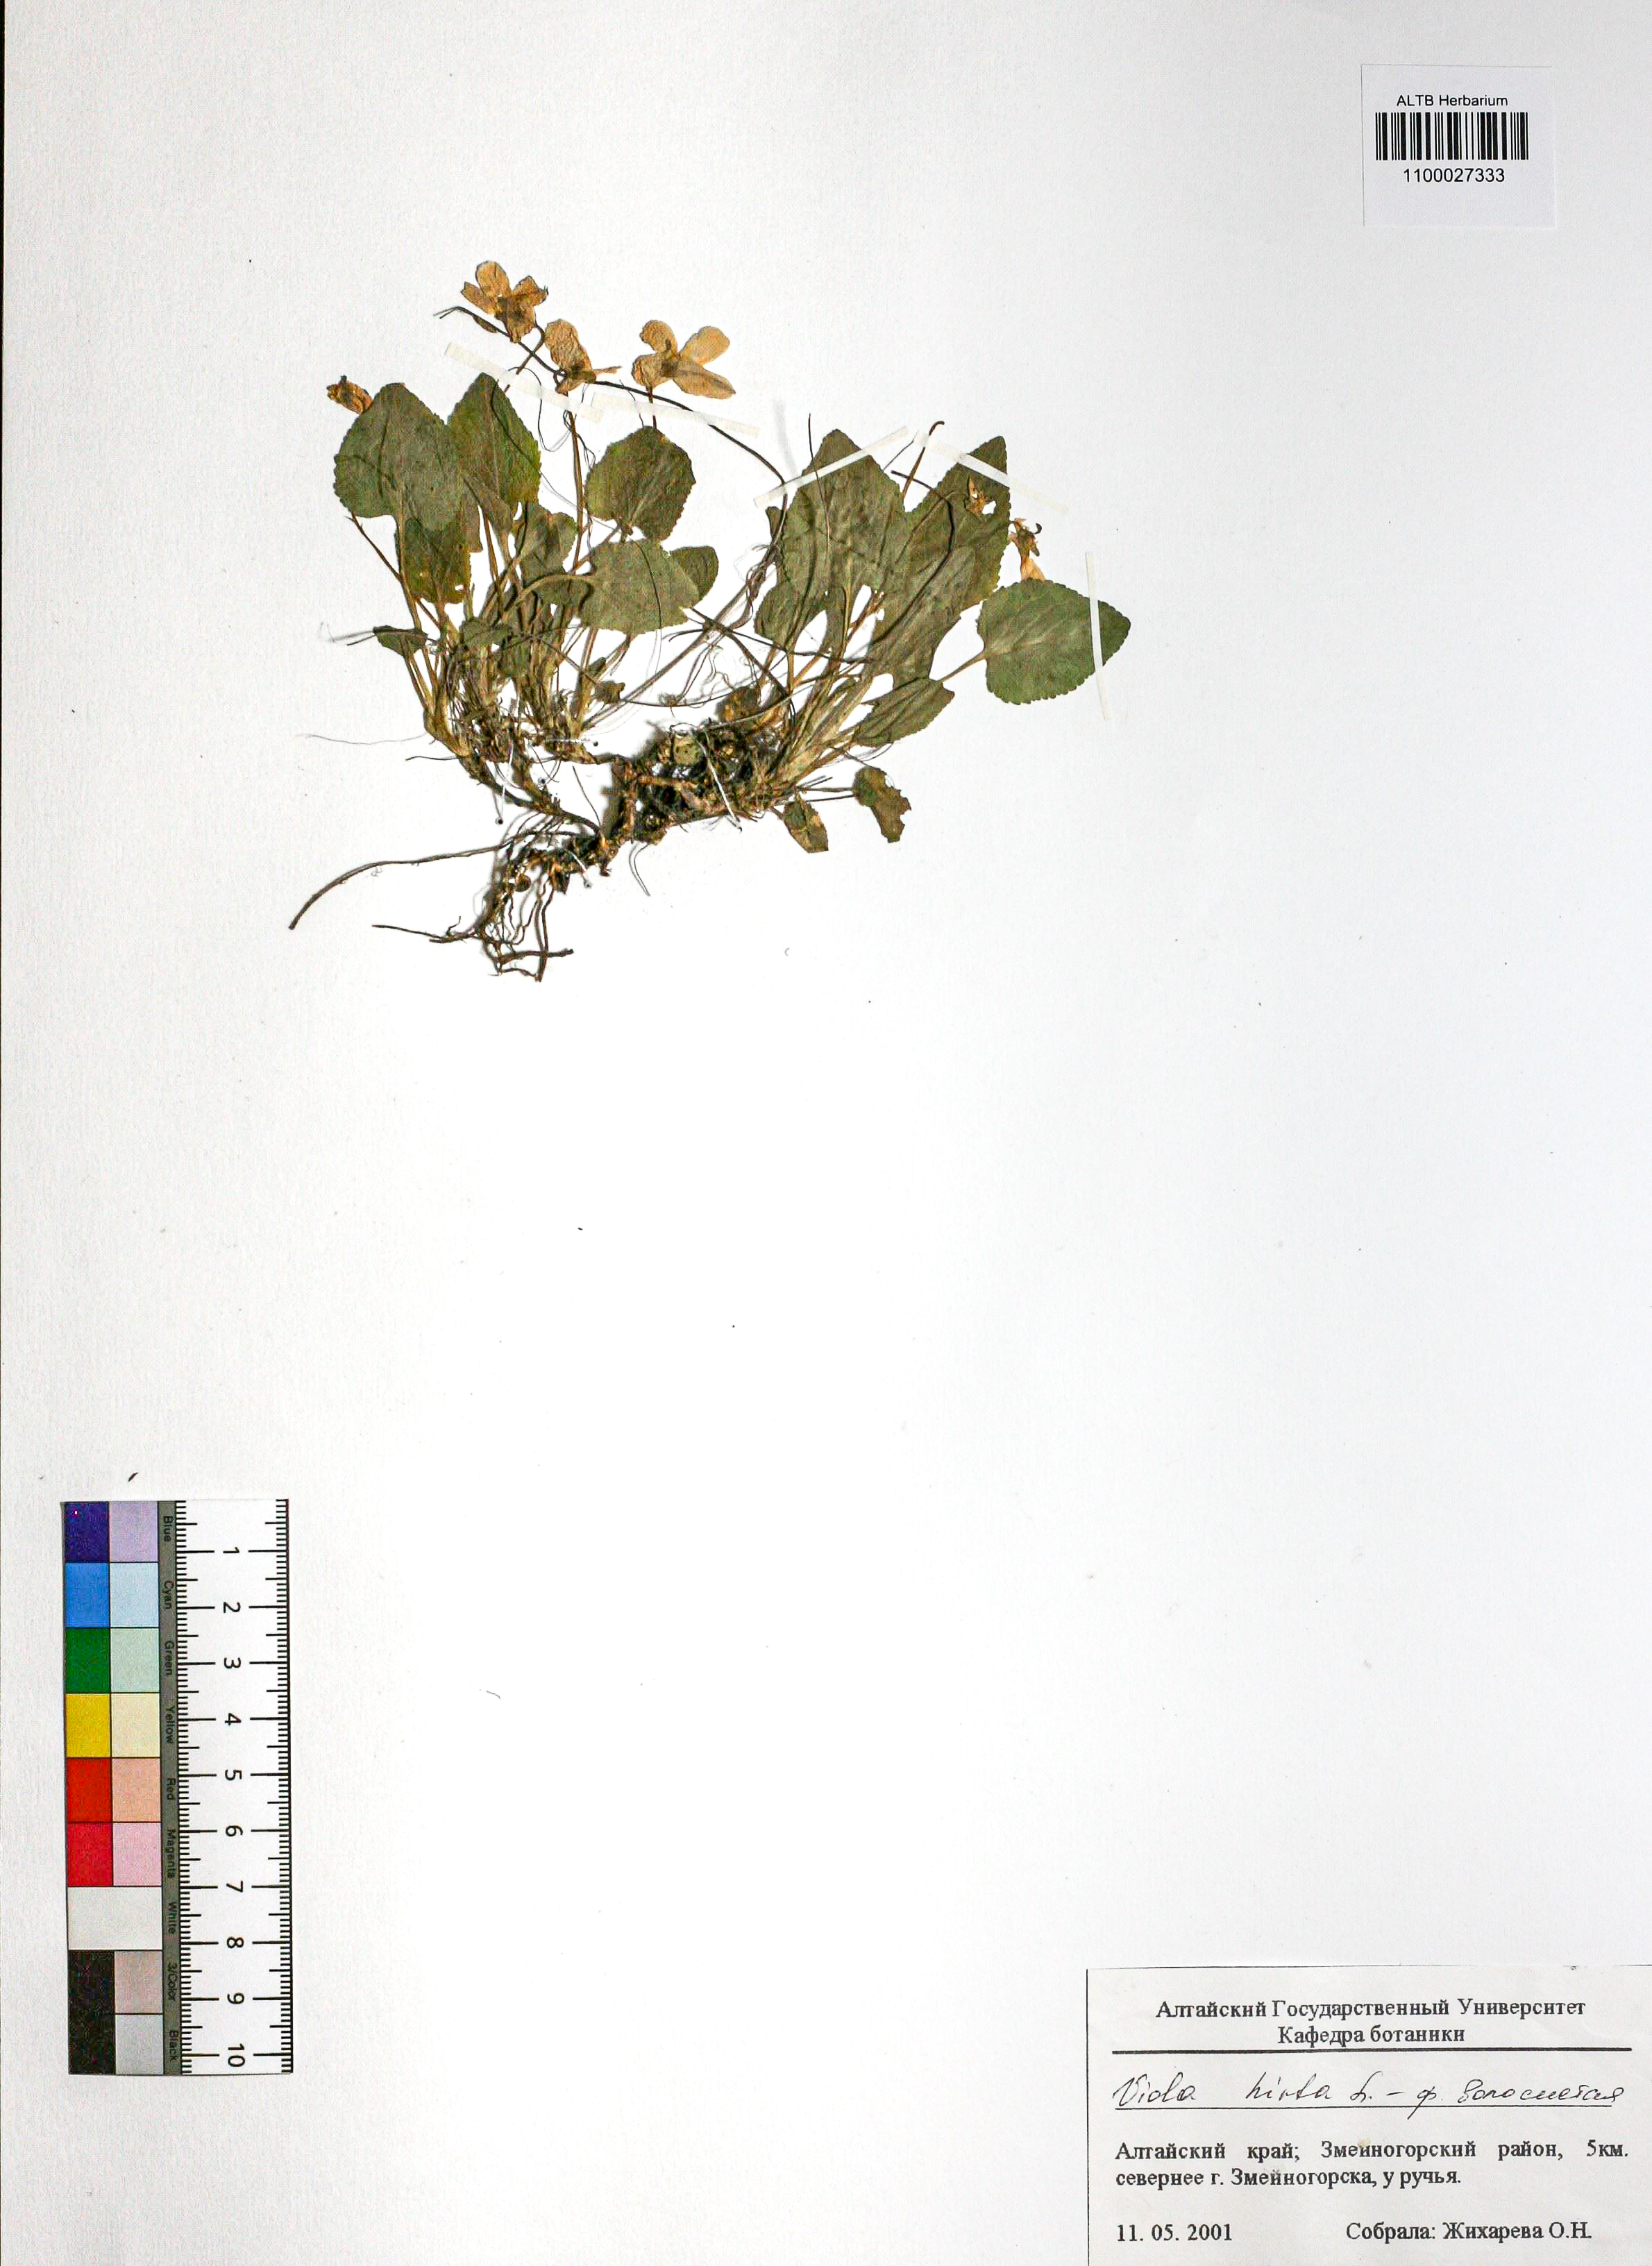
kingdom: Plantae
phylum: Tracheophyta
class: Magnoliopsida
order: Malpighiales
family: Violaceae
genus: Viola
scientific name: Viola hirta
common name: Hairy violet
